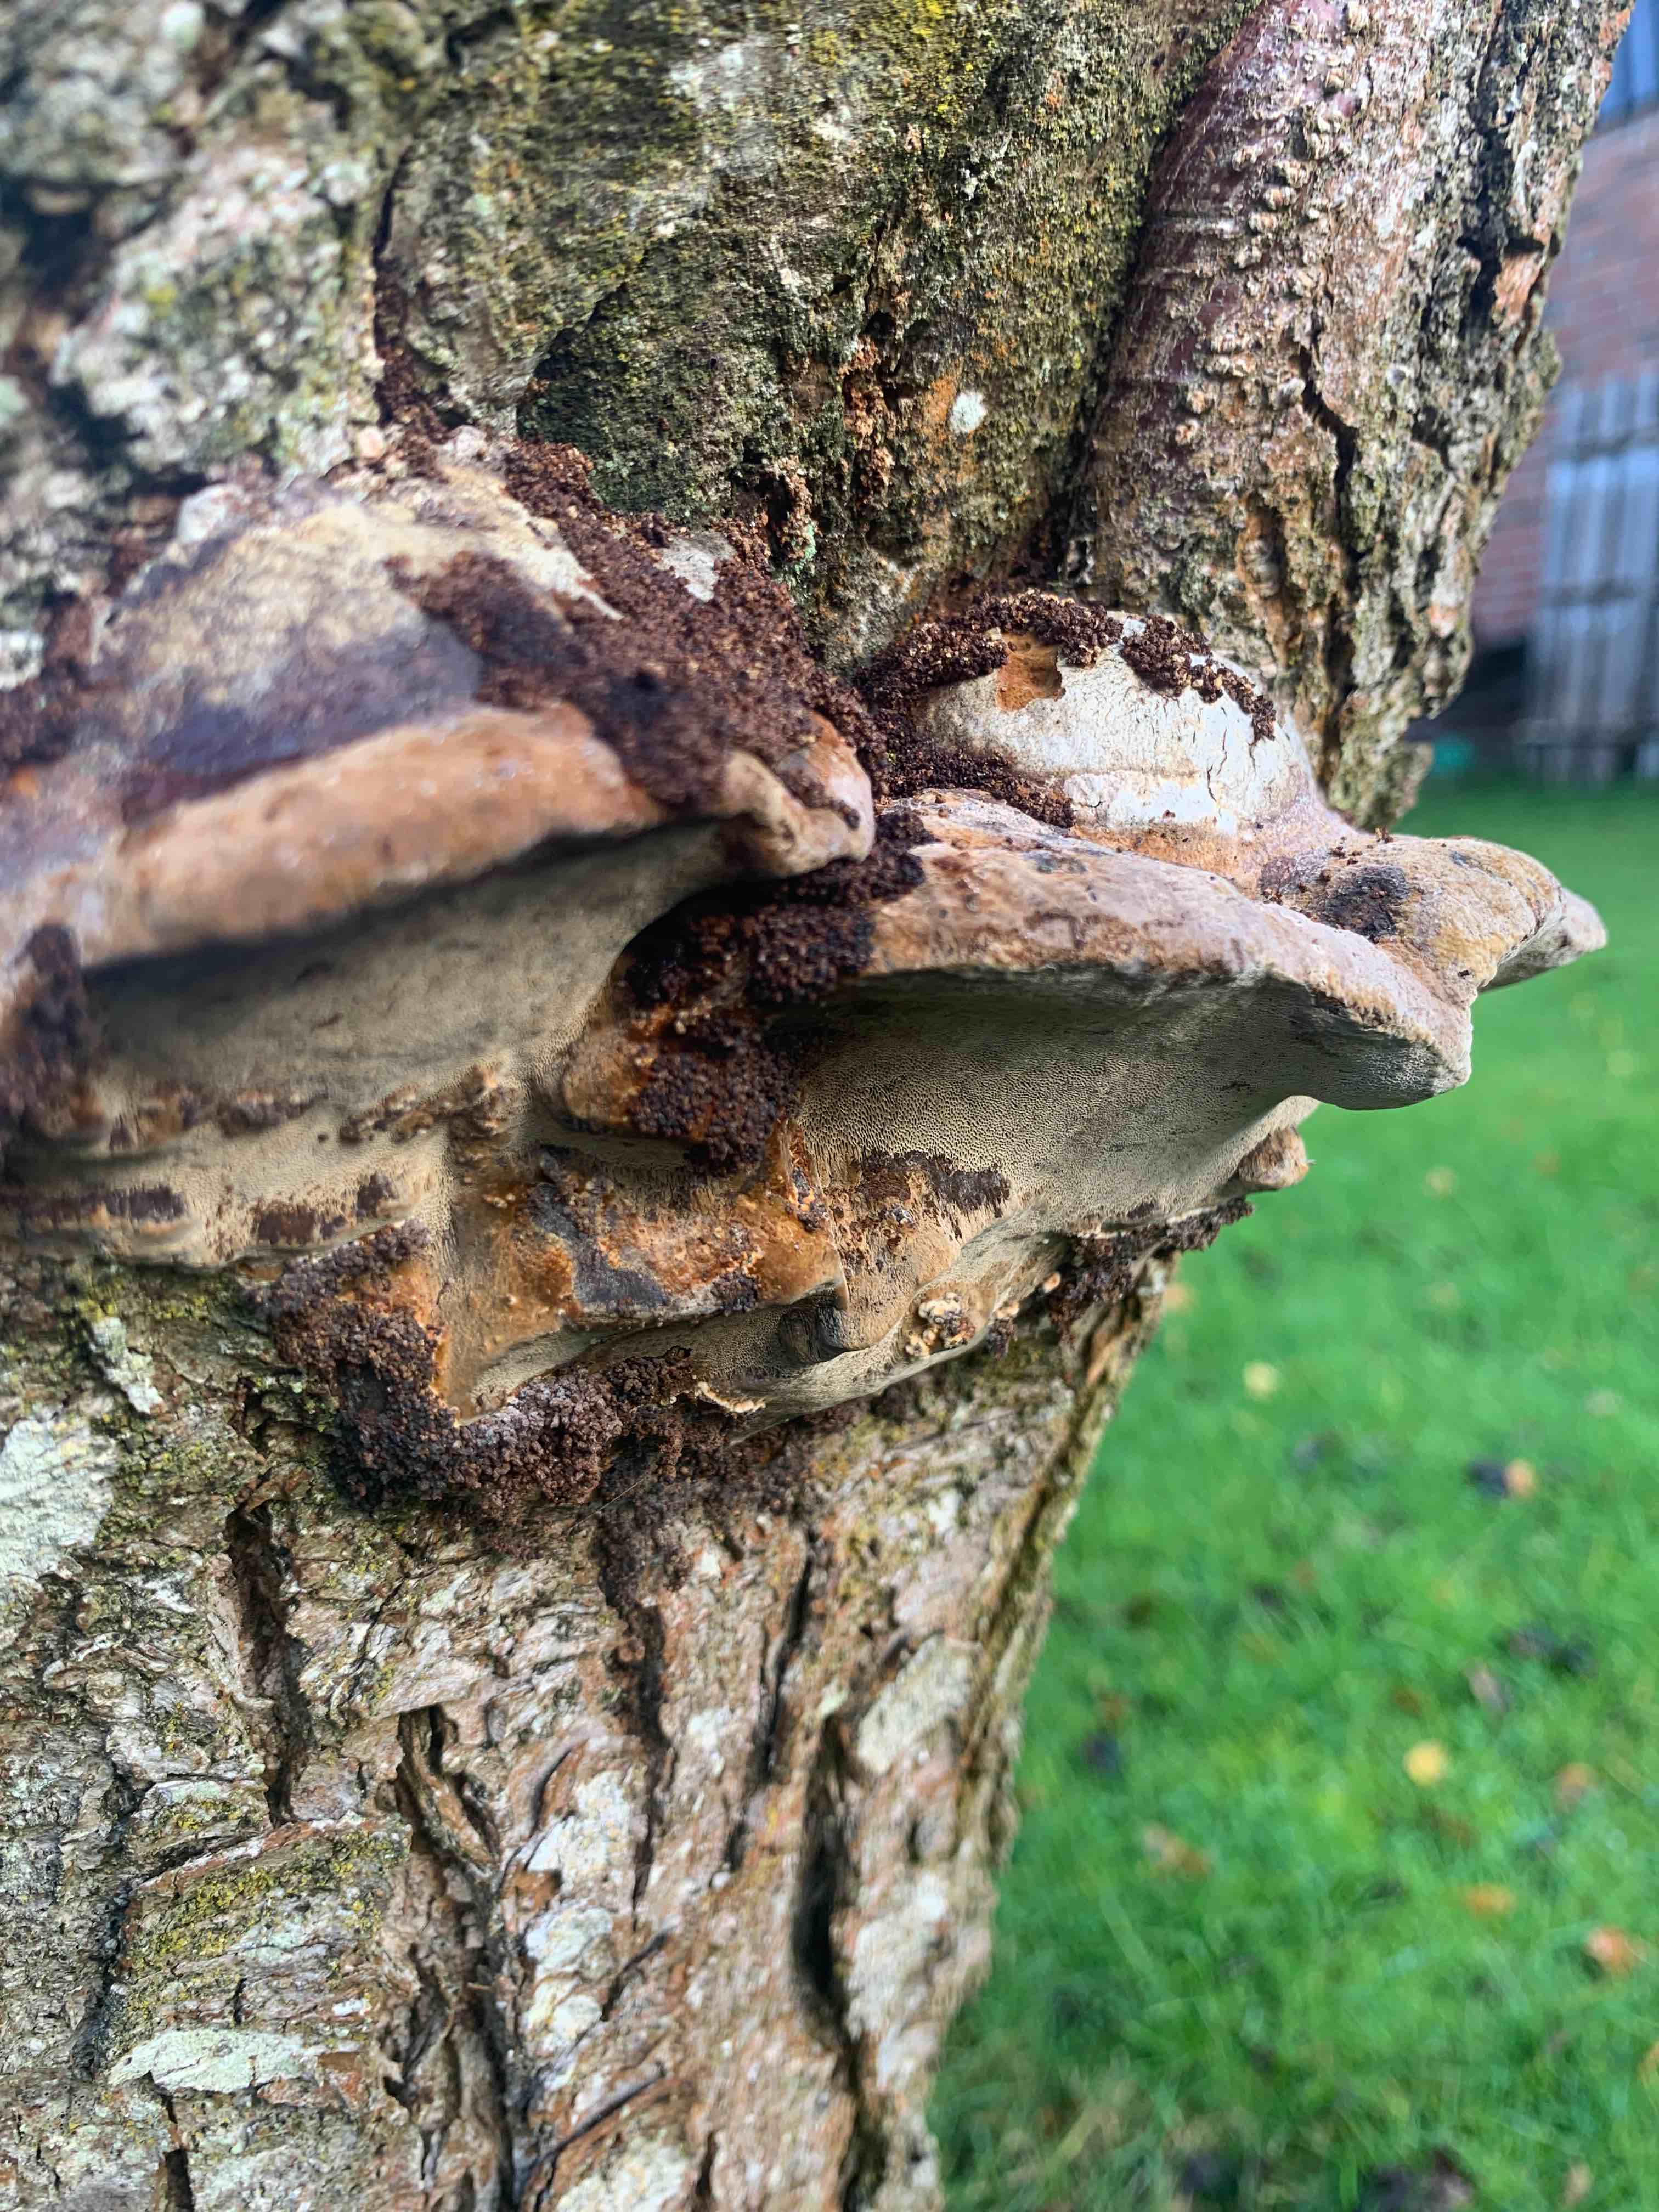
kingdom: Fungi
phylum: Basidiomycota
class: Agaricomycetes
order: Hymenochaetales
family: Hymenochaetaceae
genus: Phellinus
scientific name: Phellinus pomaceus
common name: blomme-ildporesvamp
